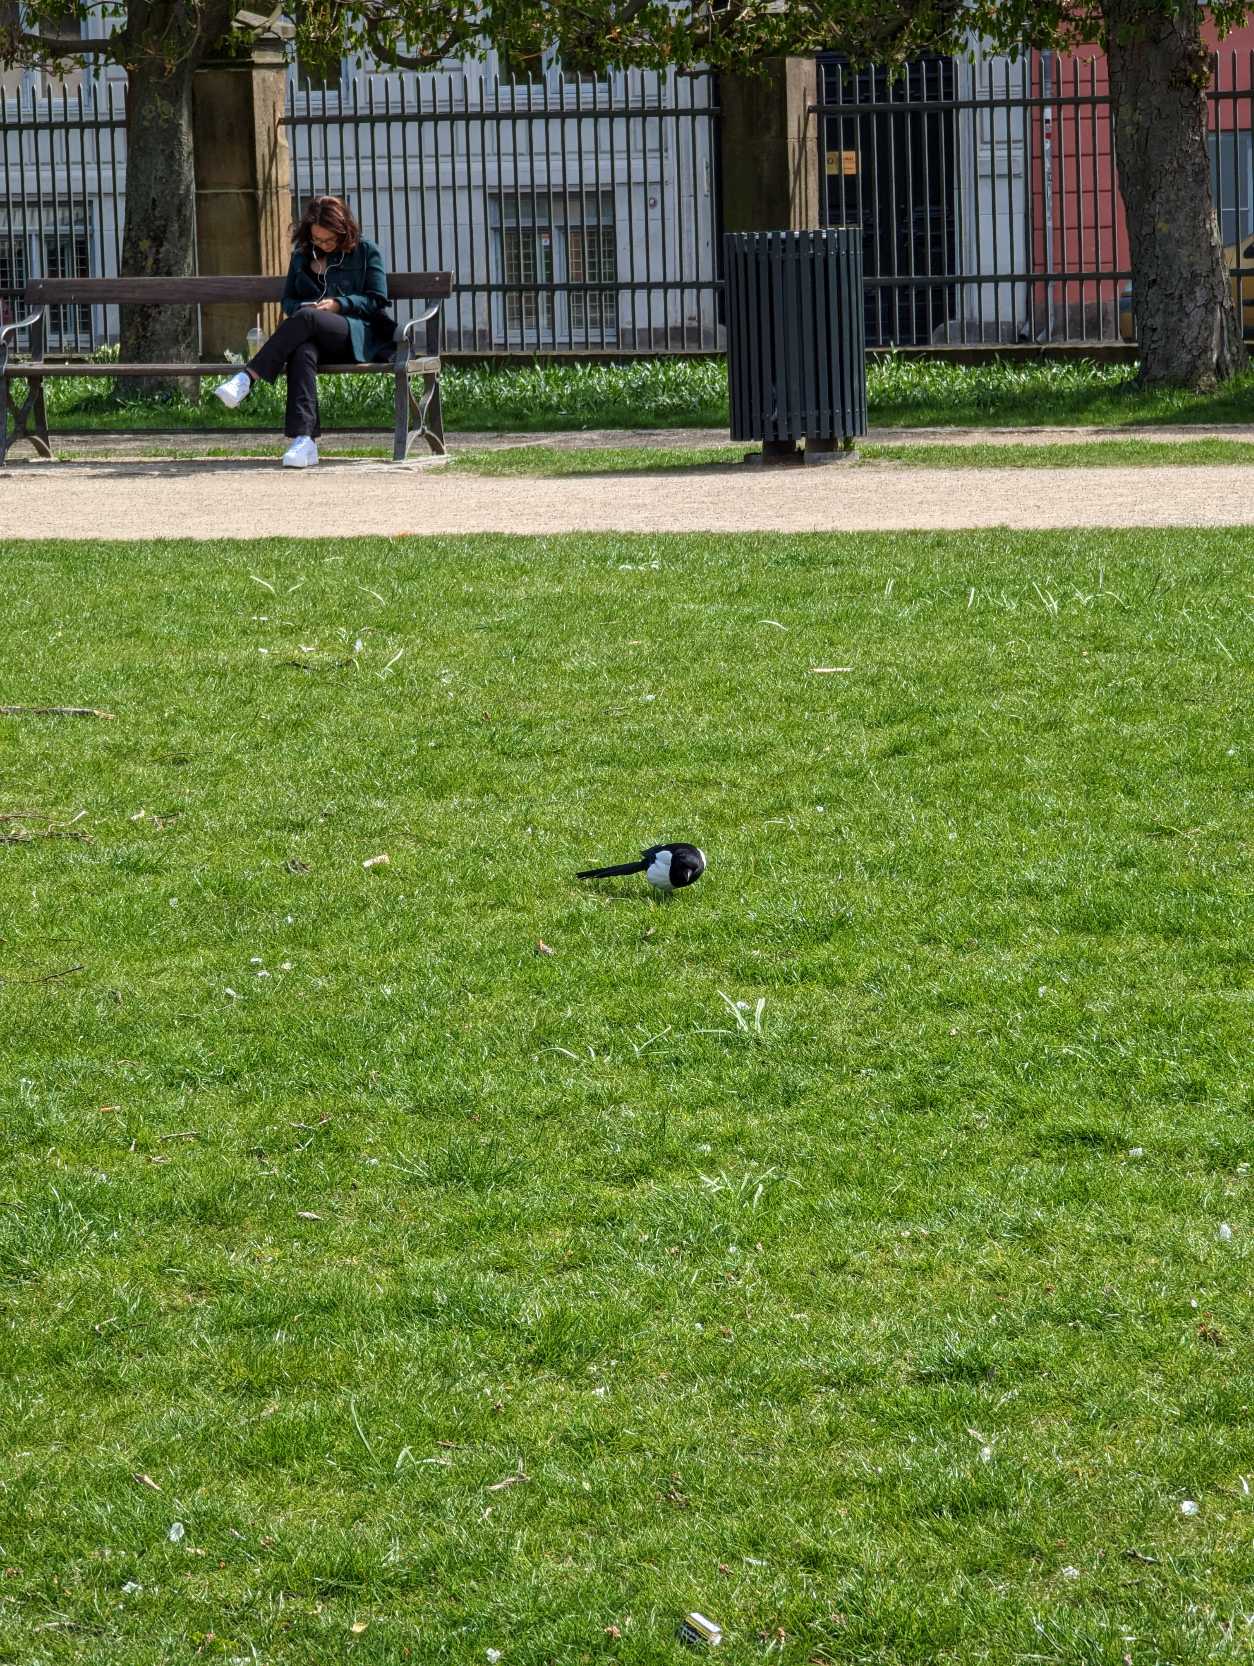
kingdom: Animalia
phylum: Chordata
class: Aves
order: Passeriformes
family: Corvidae
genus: Pica
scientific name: Pica pica
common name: Husskade
